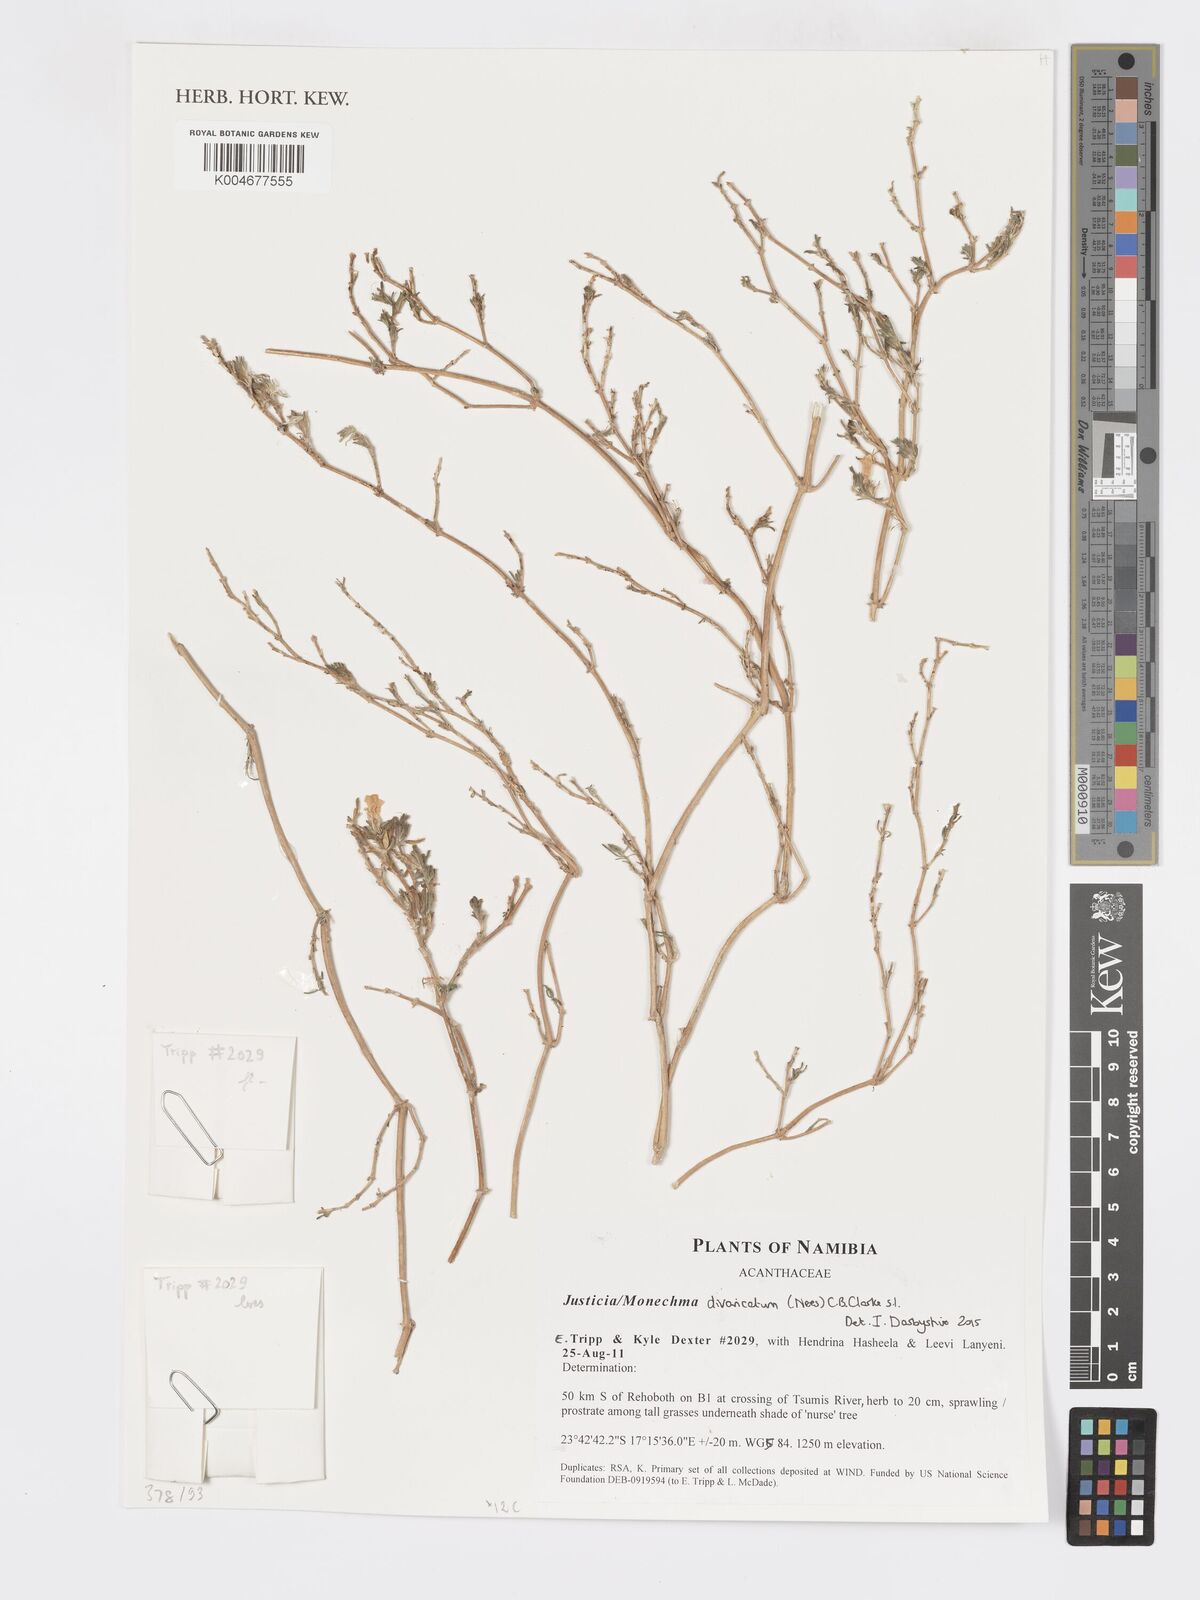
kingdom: Plantae
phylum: Tracheophyta
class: Magnoliopsida
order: Lamiales
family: Acanthaceae
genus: Pogonospermum
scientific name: Pogonospermum
